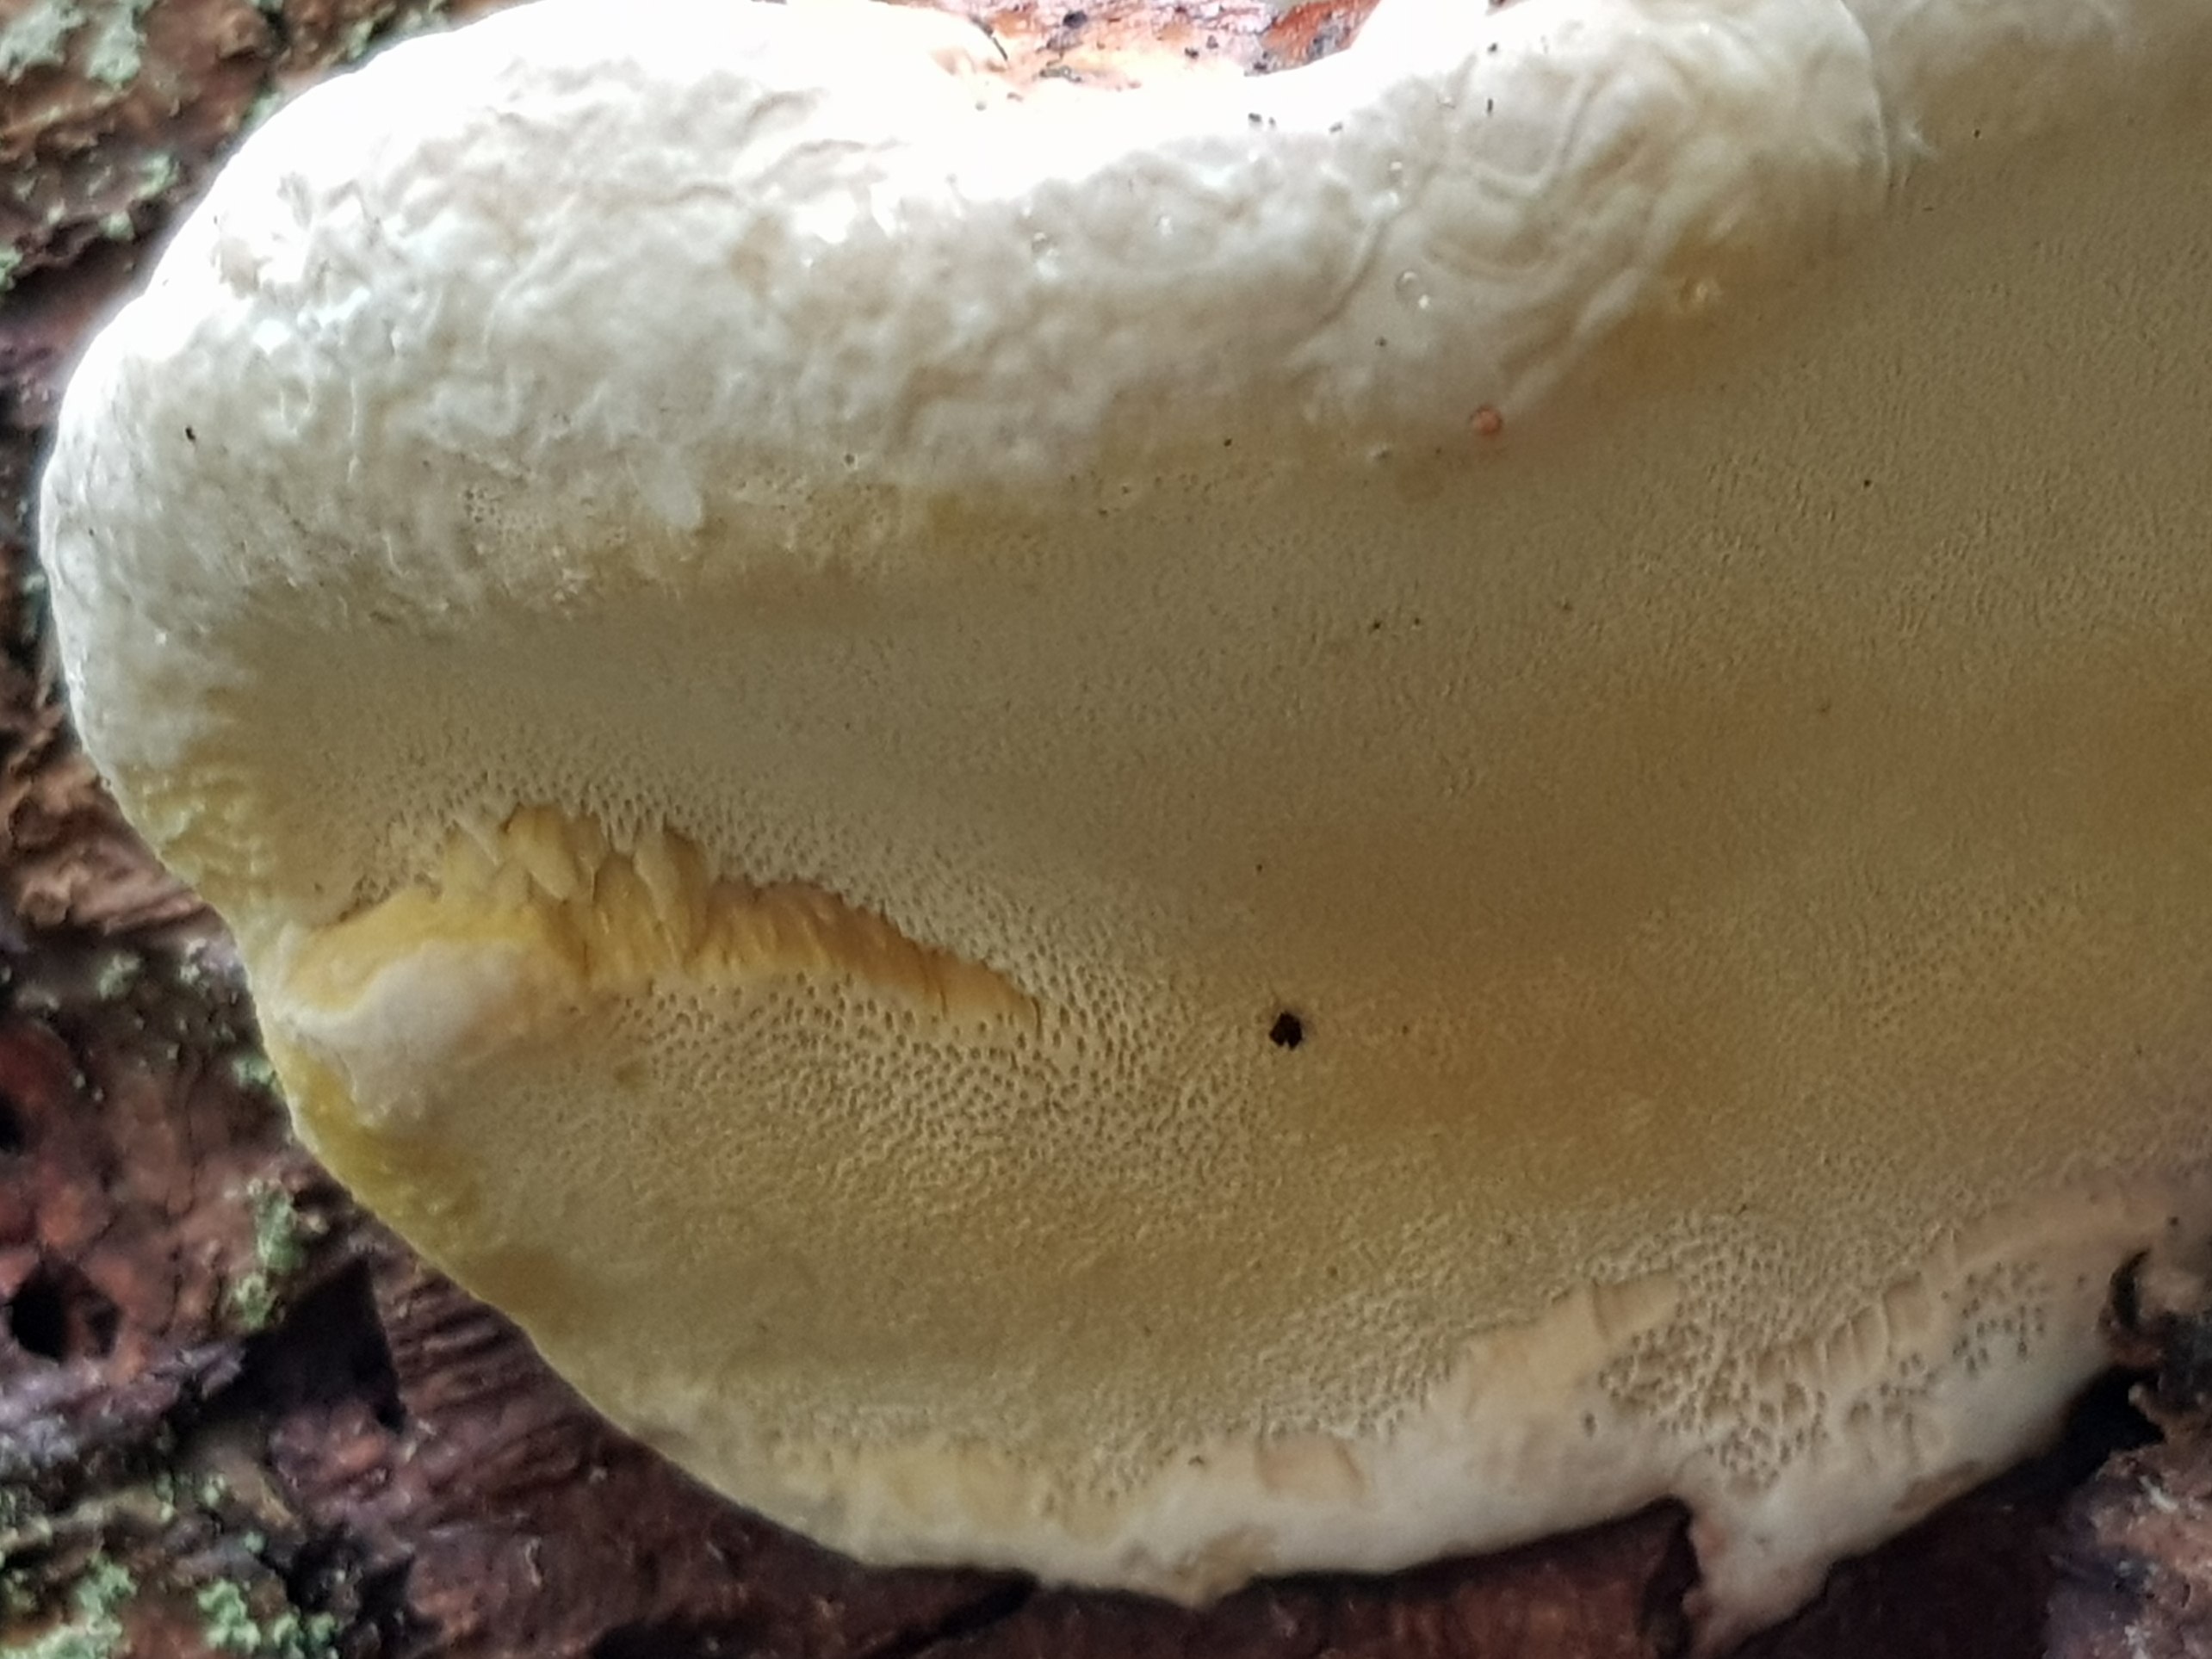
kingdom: Fungi
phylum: Basidiomycota
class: Agaricomycetes
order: Polyporales
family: Fomitopsidaceae
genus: Fomitopsis
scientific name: Fomitopsis pinicola
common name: randbæltet hovporesvamp
